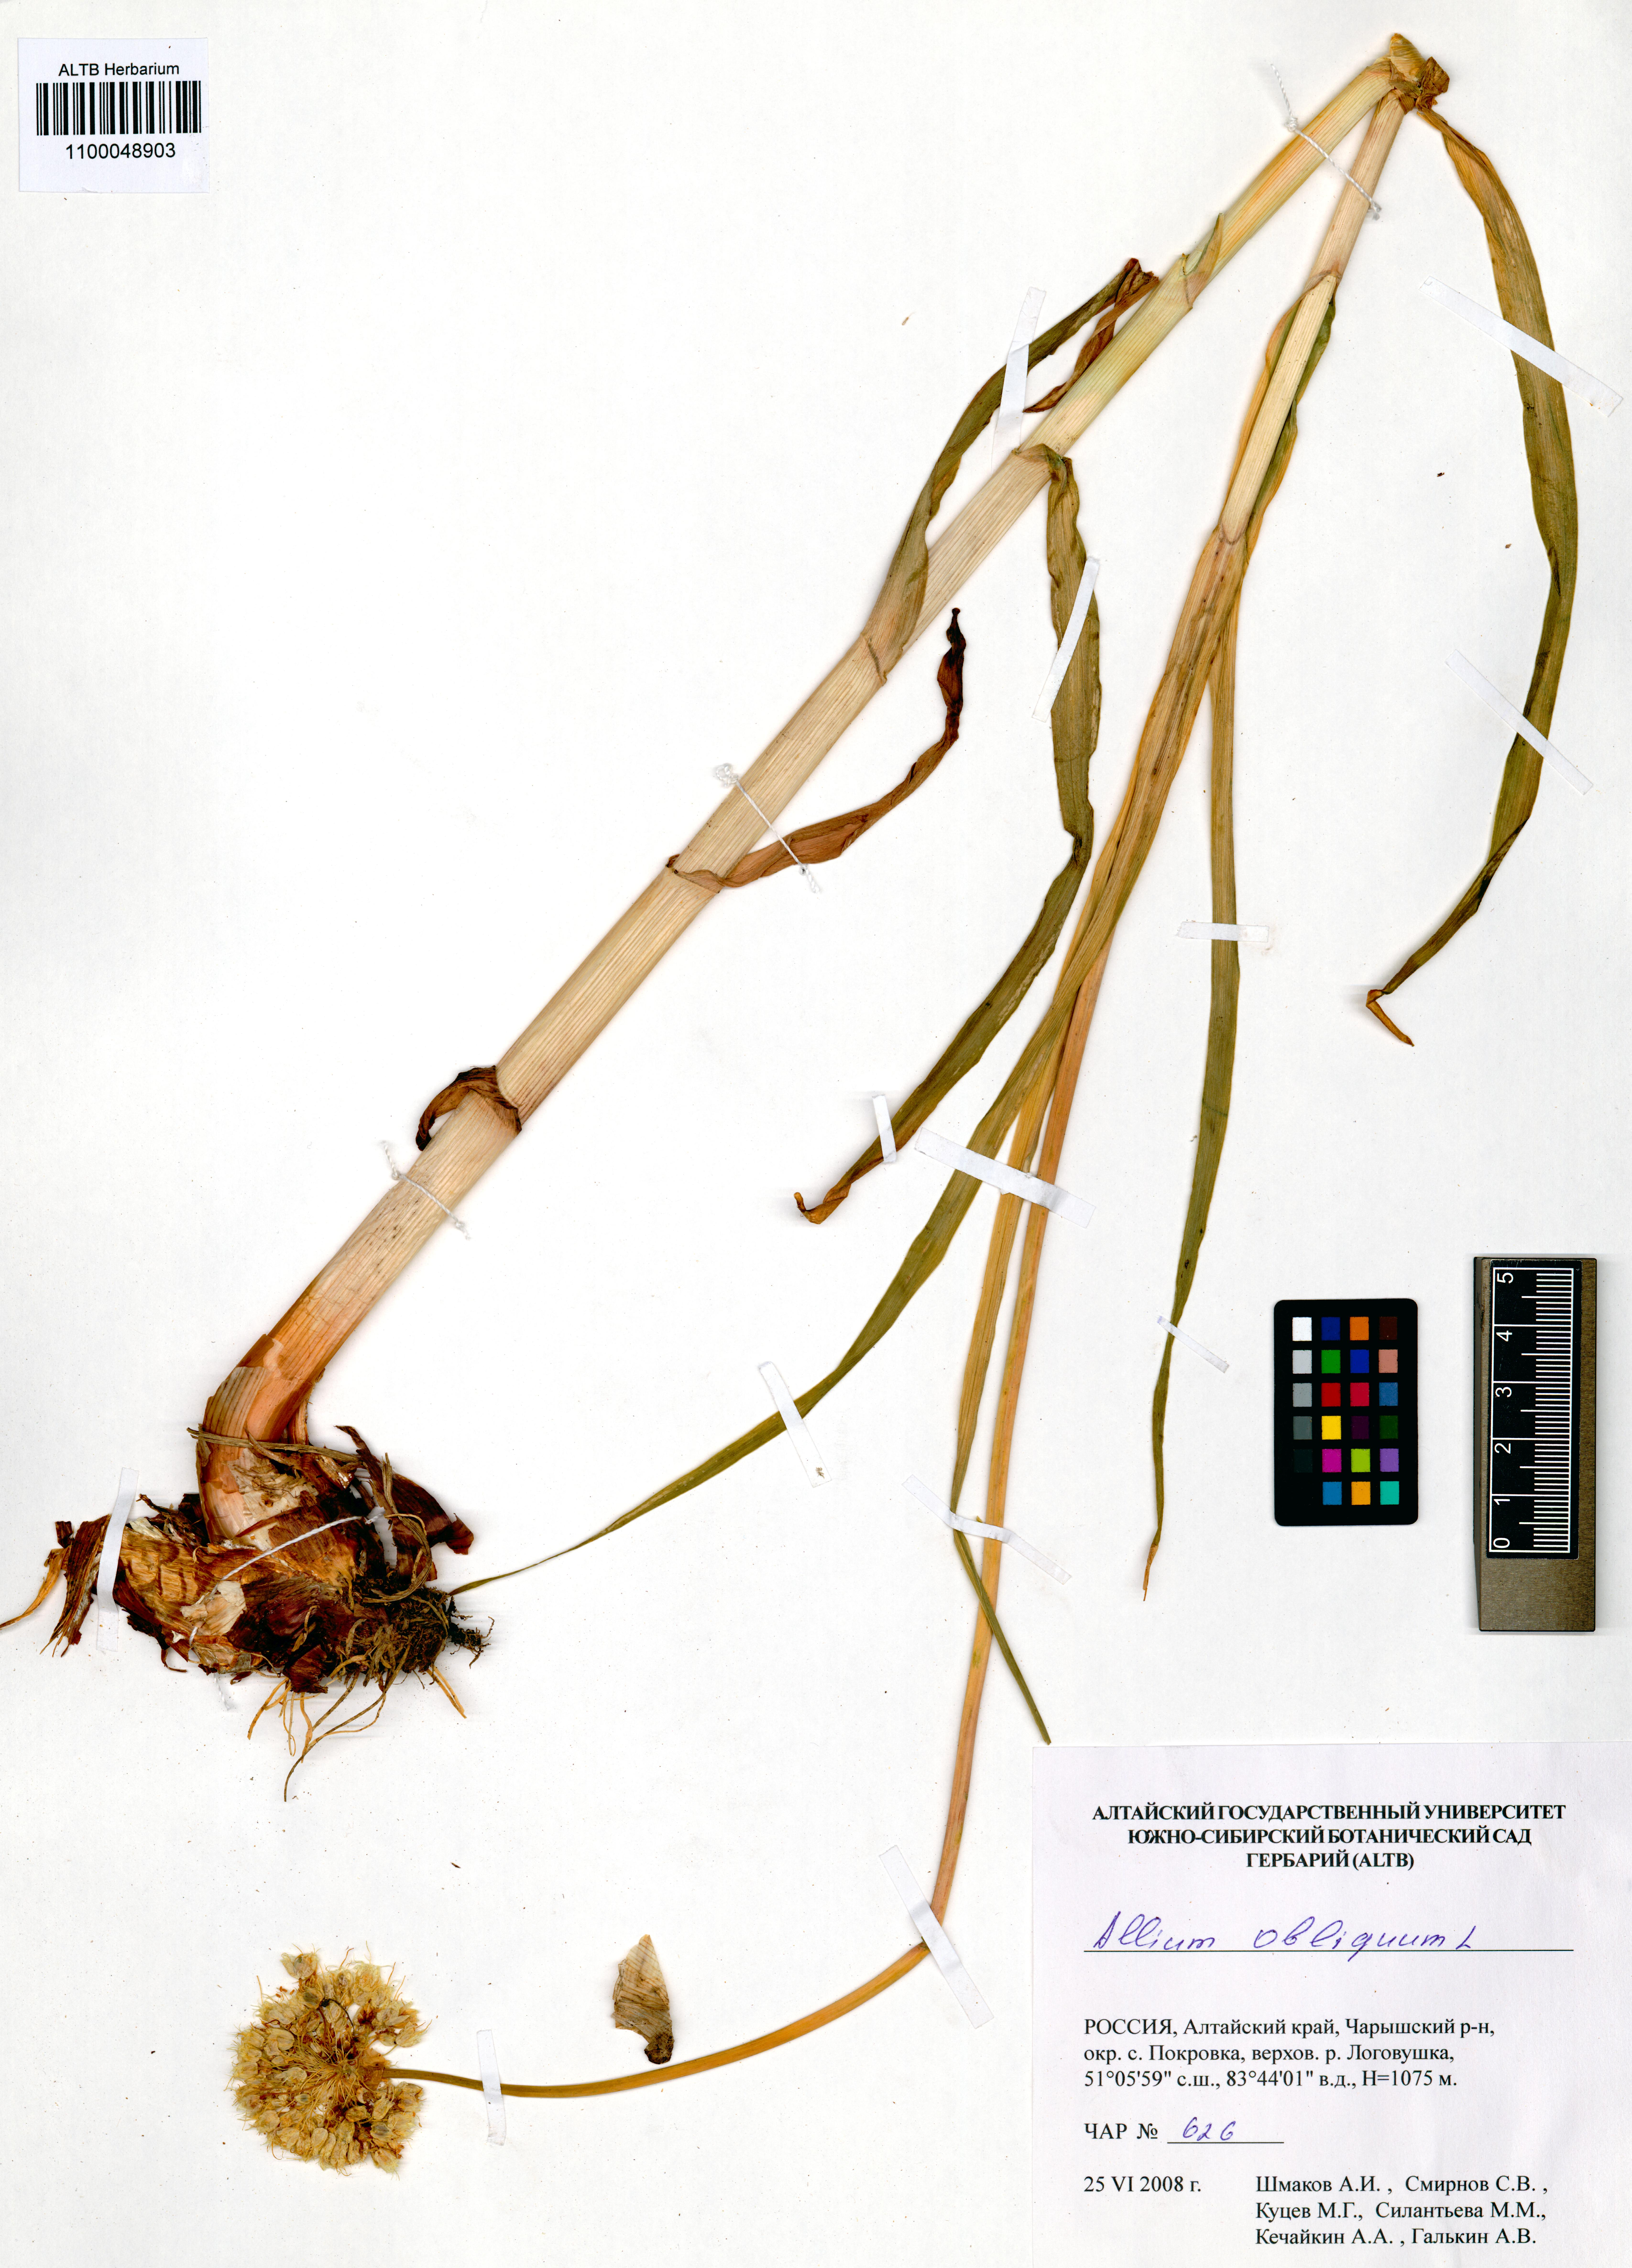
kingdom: Plantae
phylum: Tracheophyta
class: Liliopsida
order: Asparagales
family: Amaryllidaceae
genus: Allium
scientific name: Allium obliquum
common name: Oblique onion
